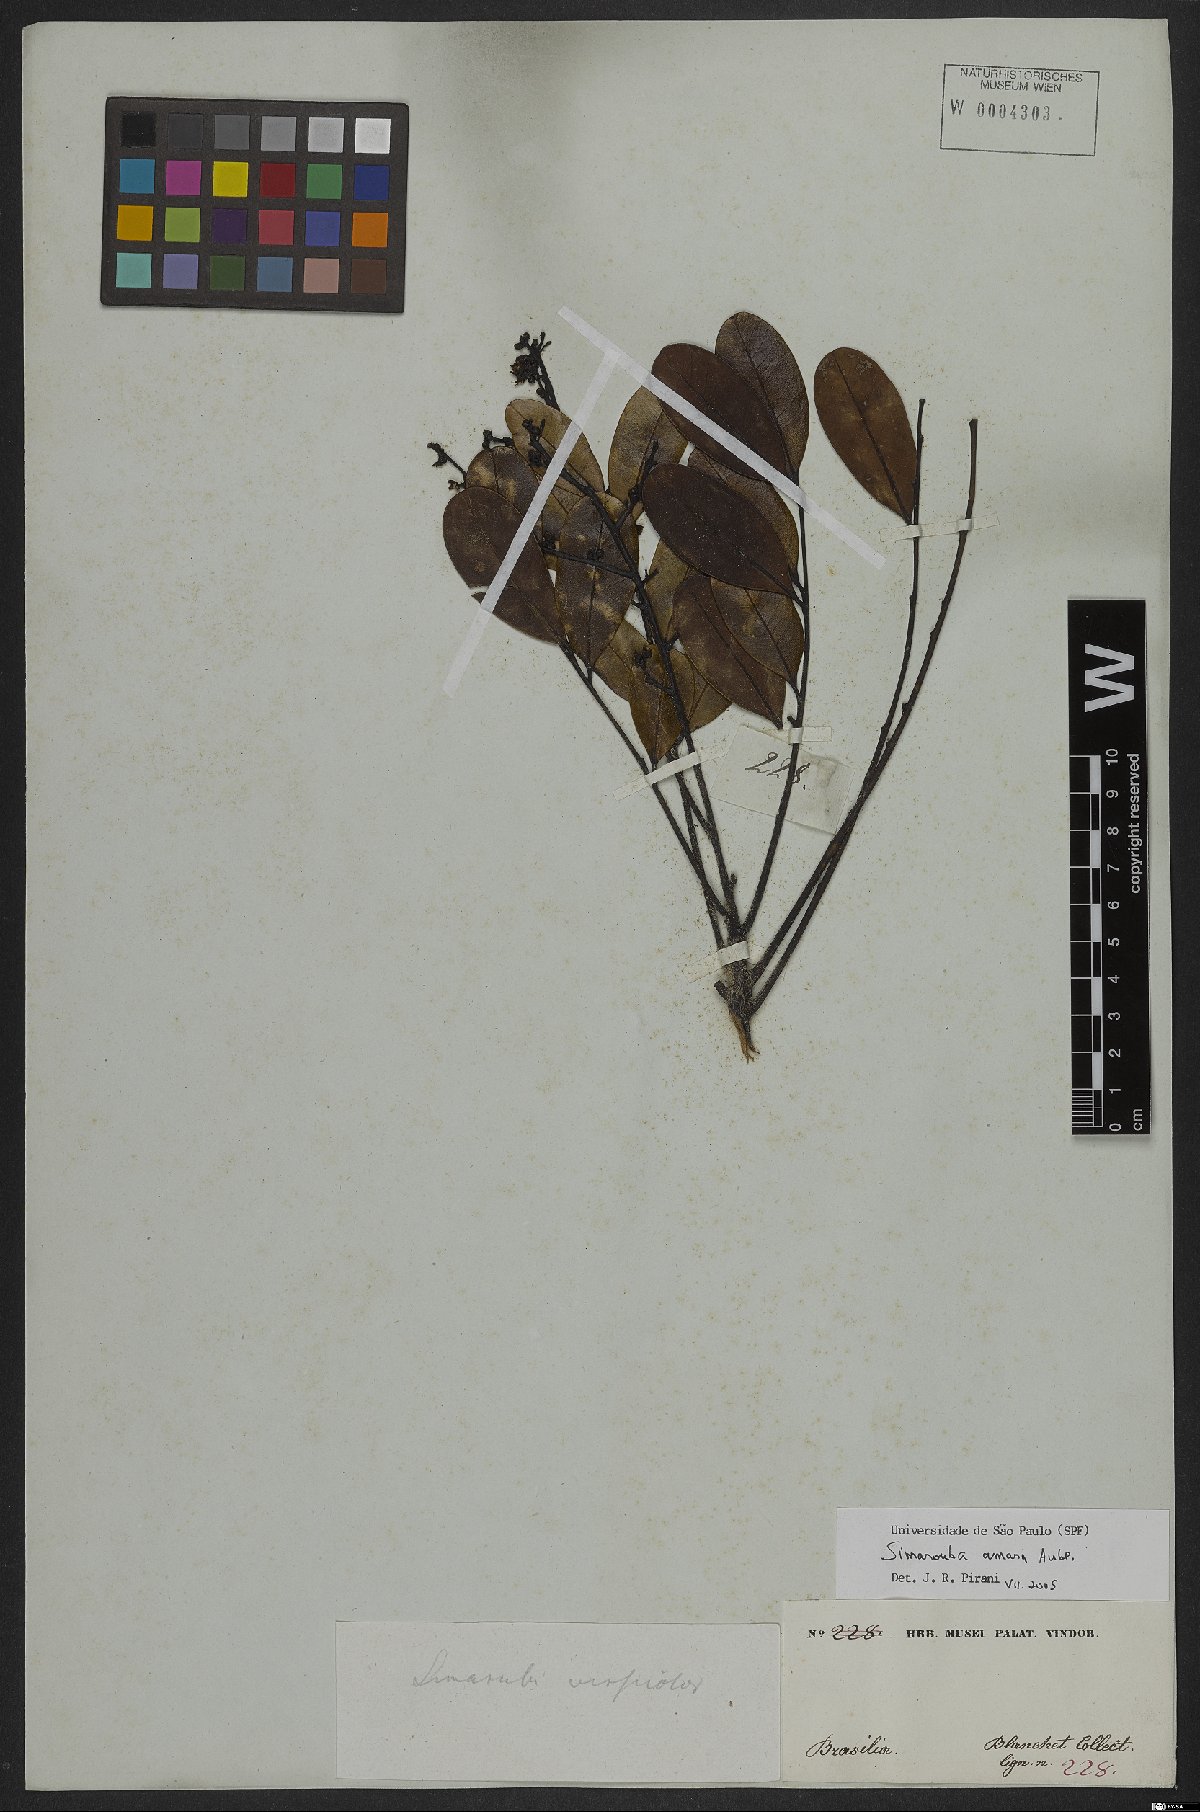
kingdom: Plantae
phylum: Tracheophyta
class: Magnoliopsida
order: Sapindales
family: Simaroubaceae
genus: Simarouba
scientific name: Simarouba amara
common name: Bitterwood
